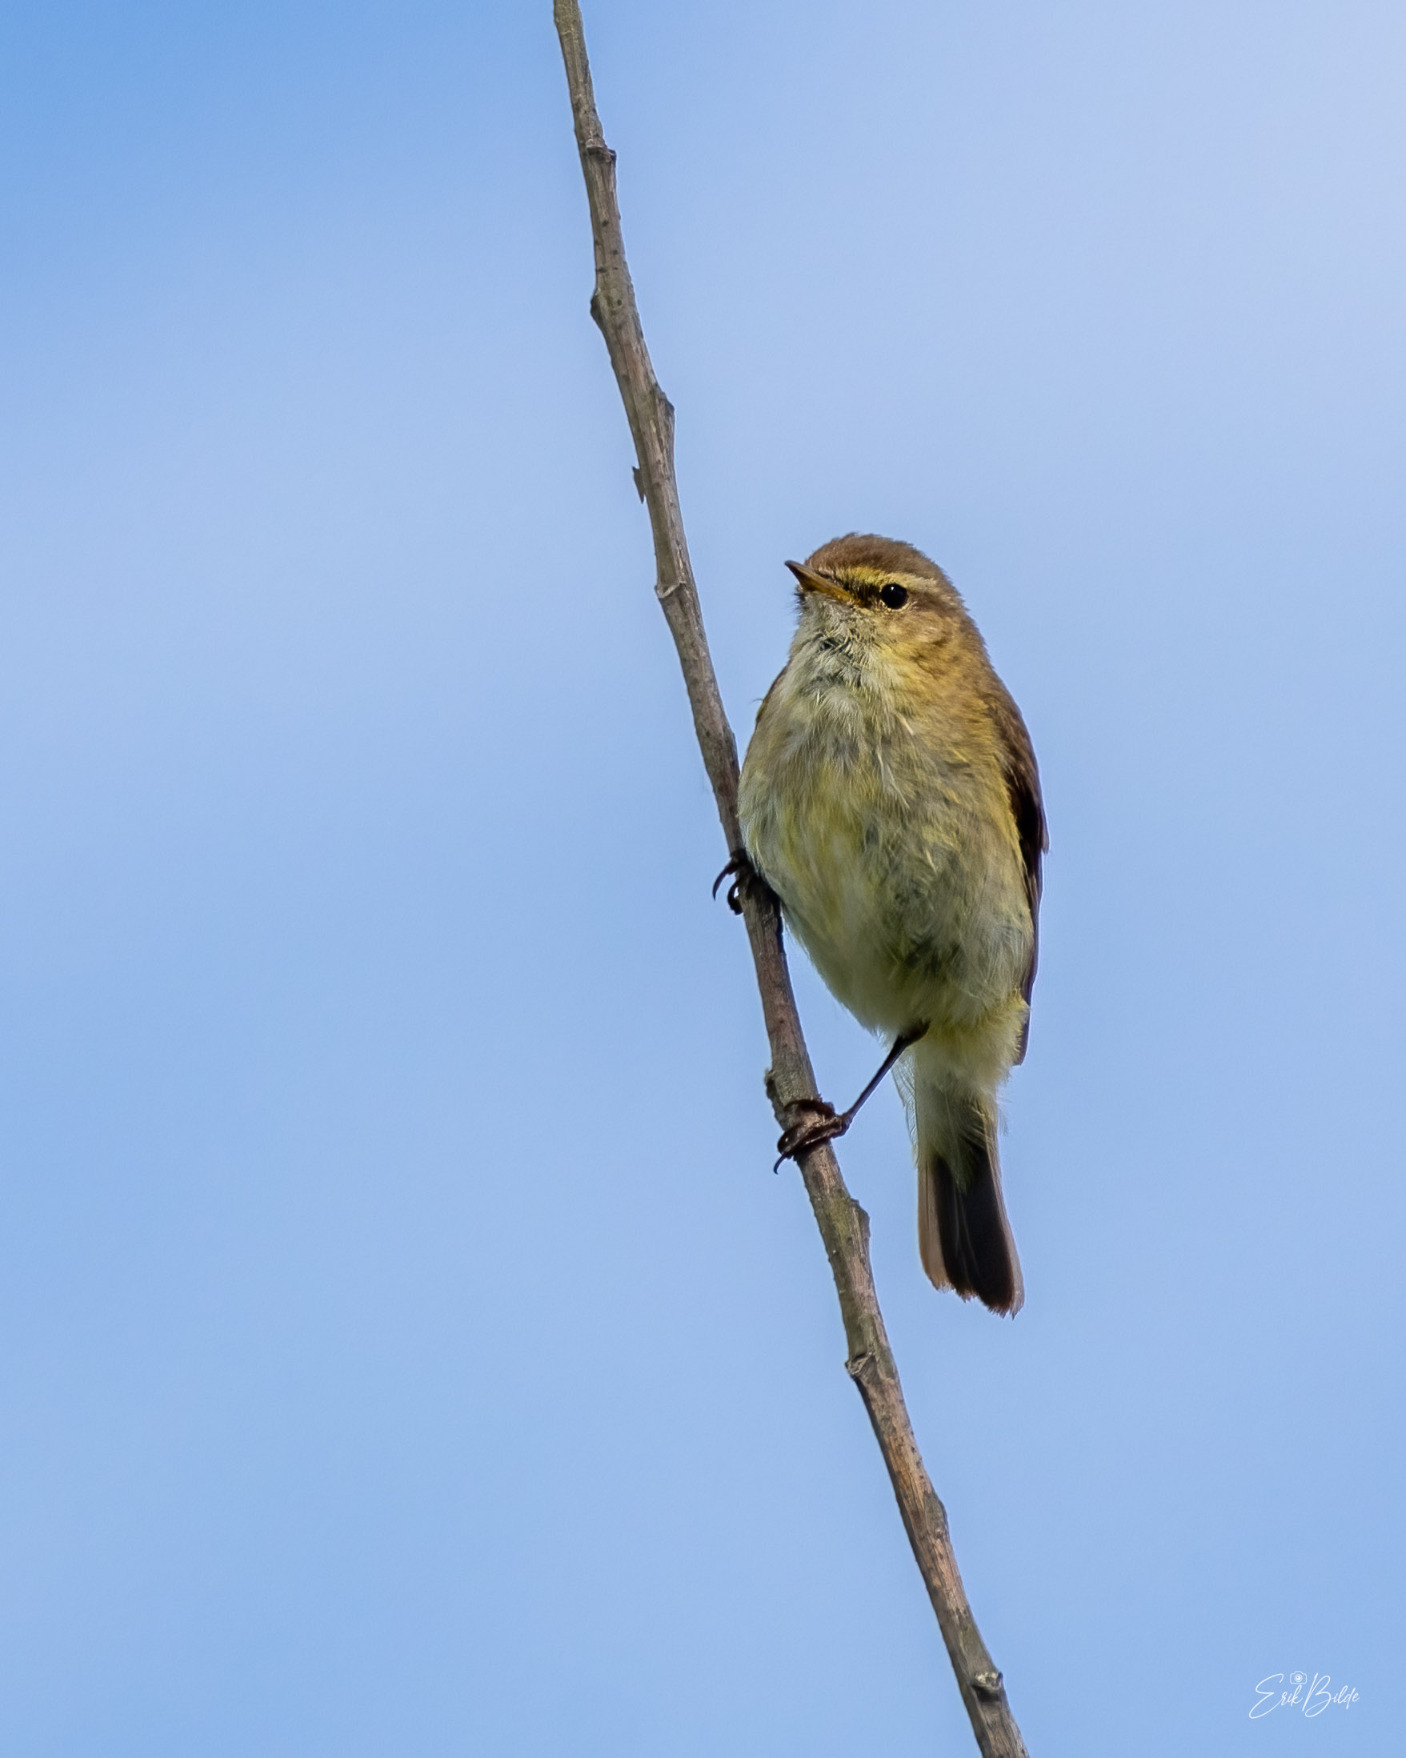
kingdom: Animalia
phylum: Chordata
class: Aves
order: Passeriformes
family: Phylloscopidae
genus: Phylloscopus
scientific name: Phylloscopus collybita
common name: Gransanger
